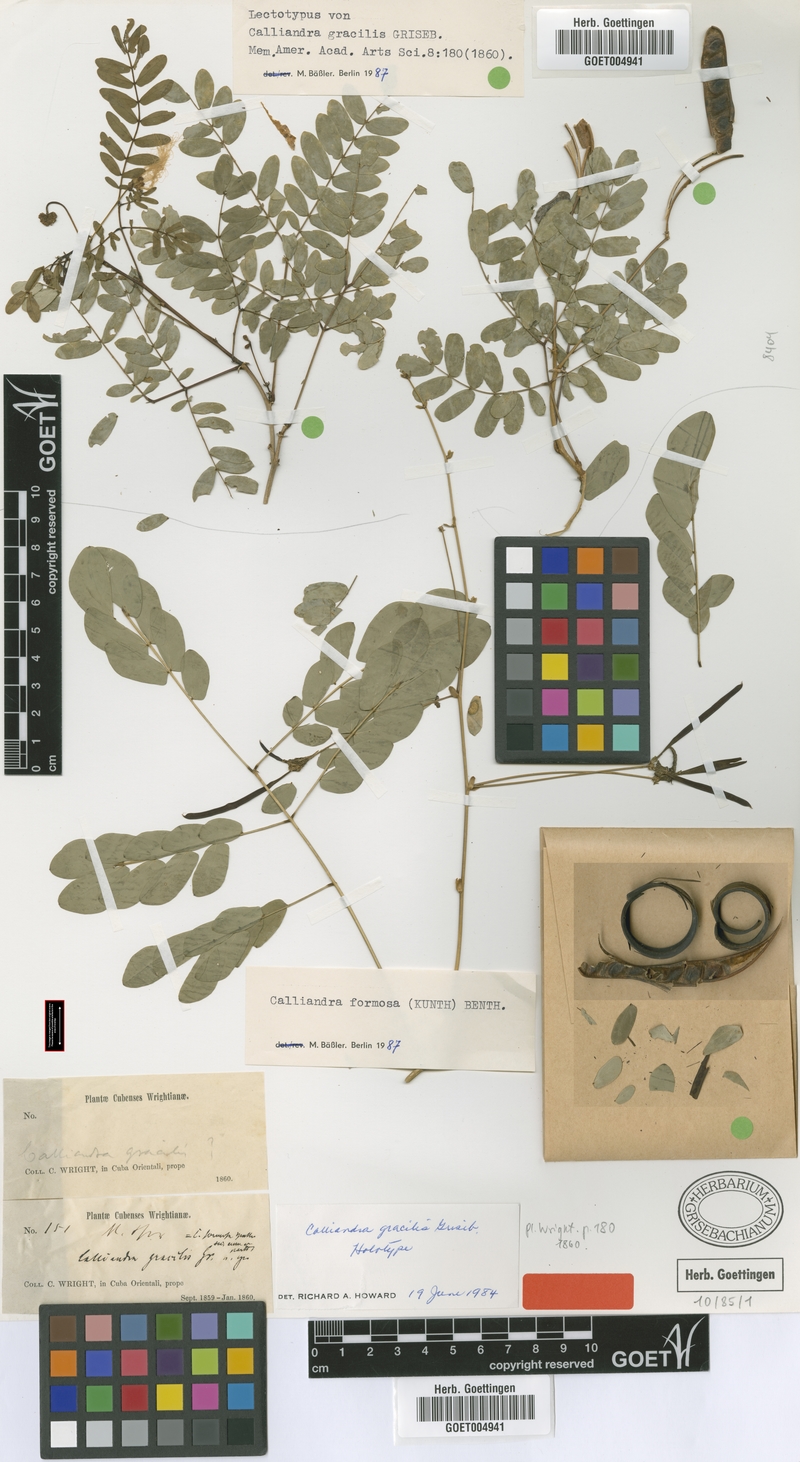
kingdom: Plantae
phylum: Tracheophyta
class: Magnoliopsida
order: Fabales
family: Fabaceae
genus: Zapoteca
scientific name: Zapoteca gracilis
